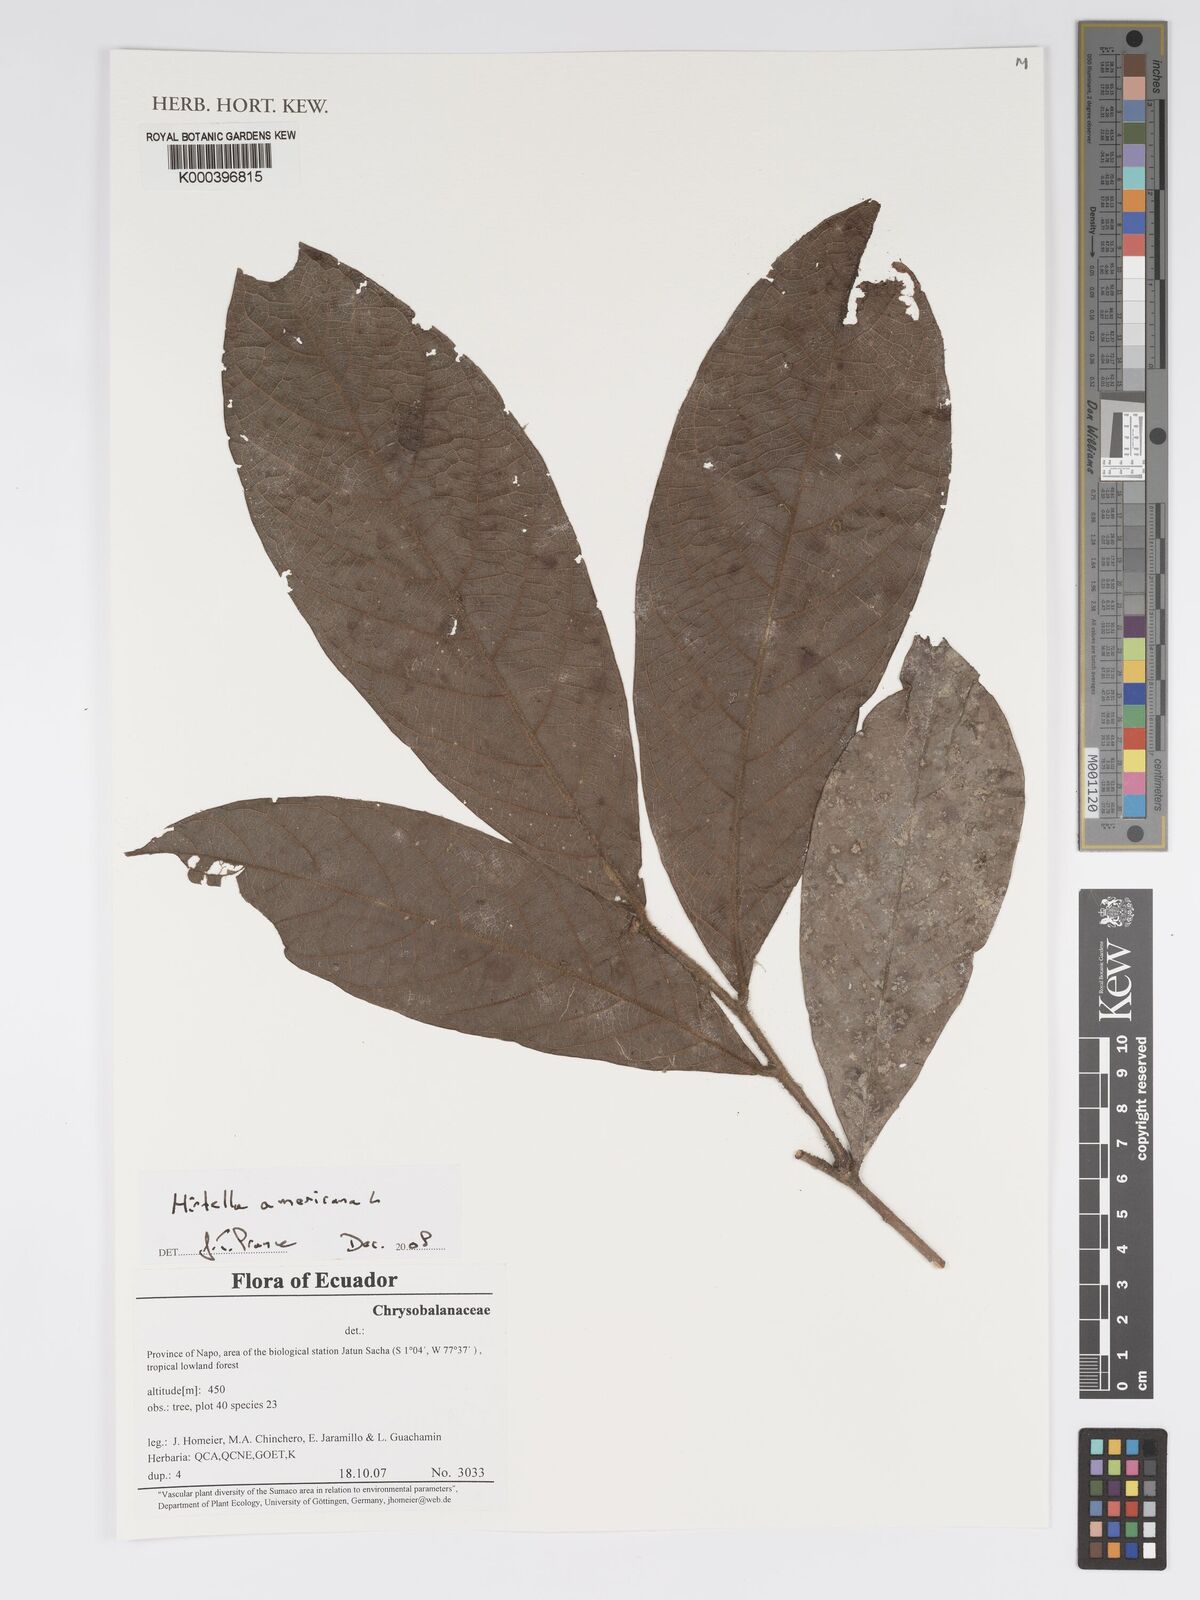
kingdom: Plantae
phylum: Tracheophyta
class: Magnoliopsida
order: Malpighiales
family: Chrysobalanaceae
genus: Hirtella
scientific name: Hirtella americana
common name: Pigeon-plum
